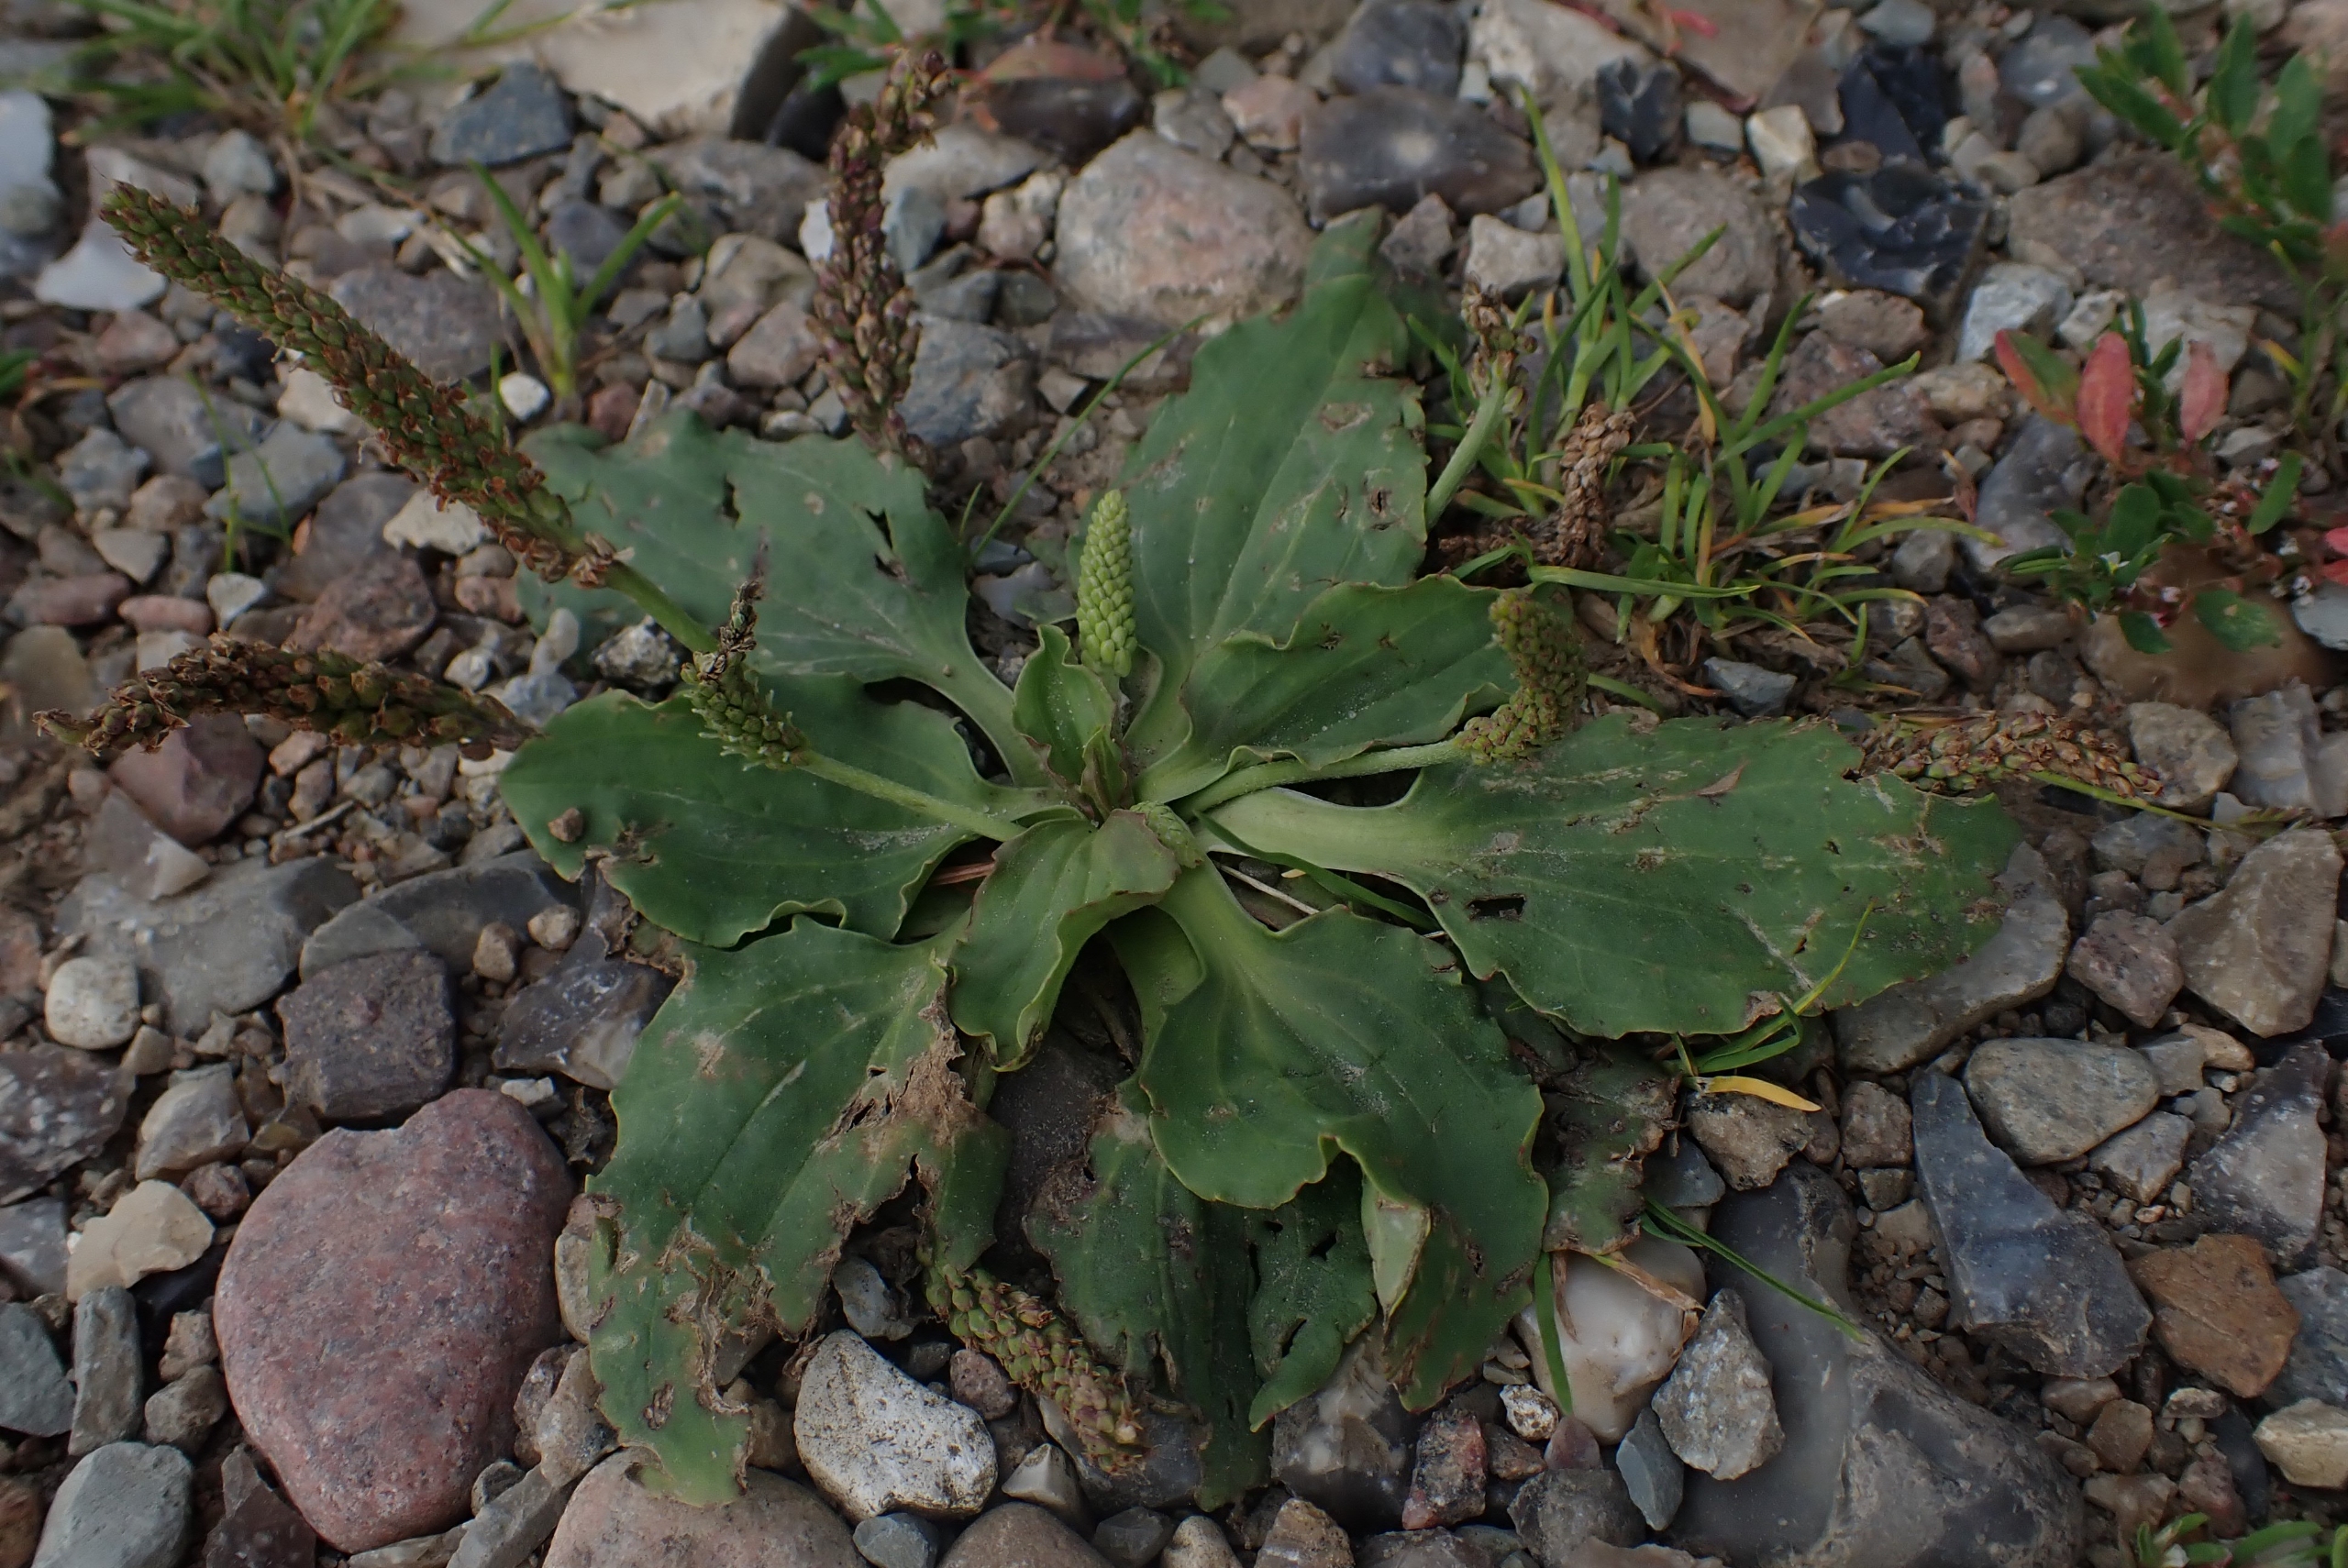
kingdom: Plantae
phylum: Tracheophyta
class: Magnoliopsida
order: Lamiales
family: Plantaginaceae
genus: Plantago
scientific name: Plantago uliginosa
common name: Ager-vejbred
